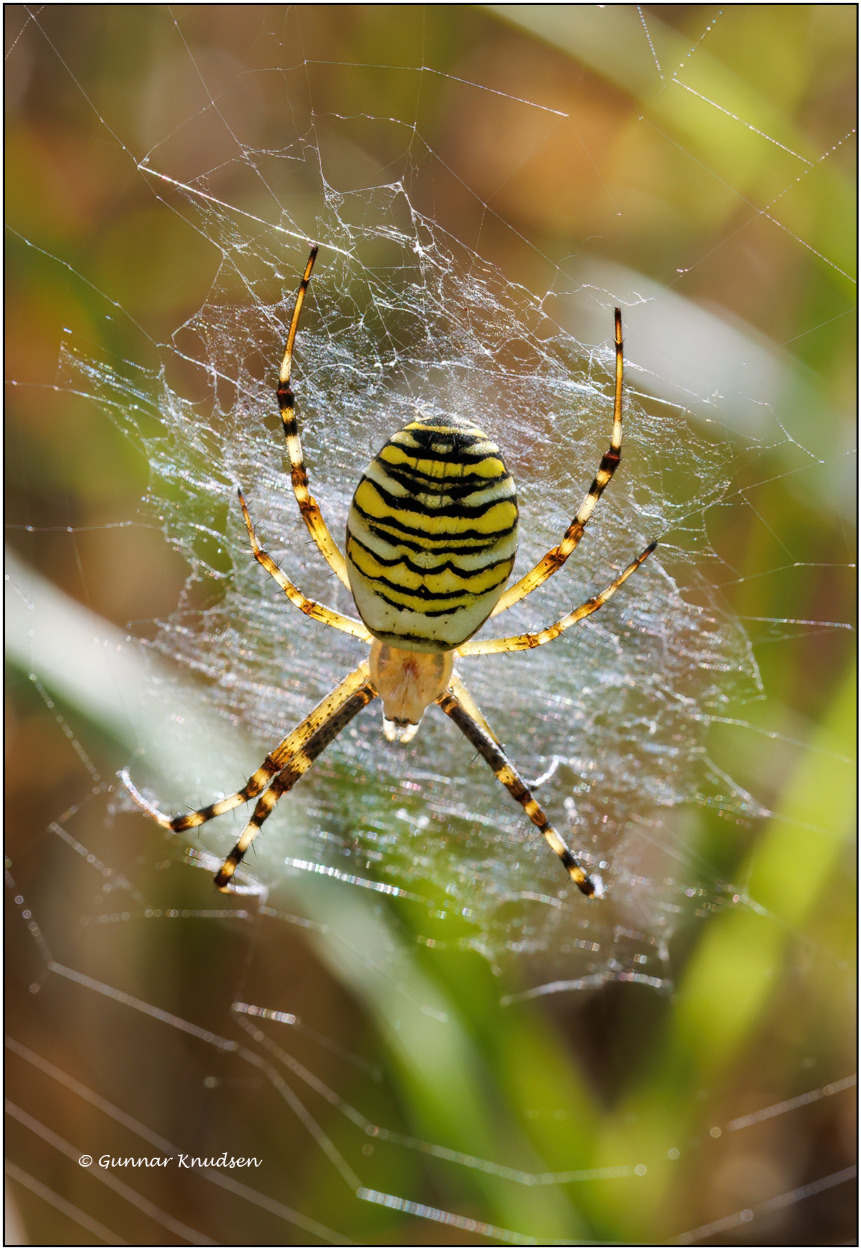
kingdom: Animalia
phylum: Arthropoda
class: Arachnida
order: Araneae
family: Araneidae
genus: Argiope
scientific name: Argiope bruennichi
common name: Hvepseedderkop
